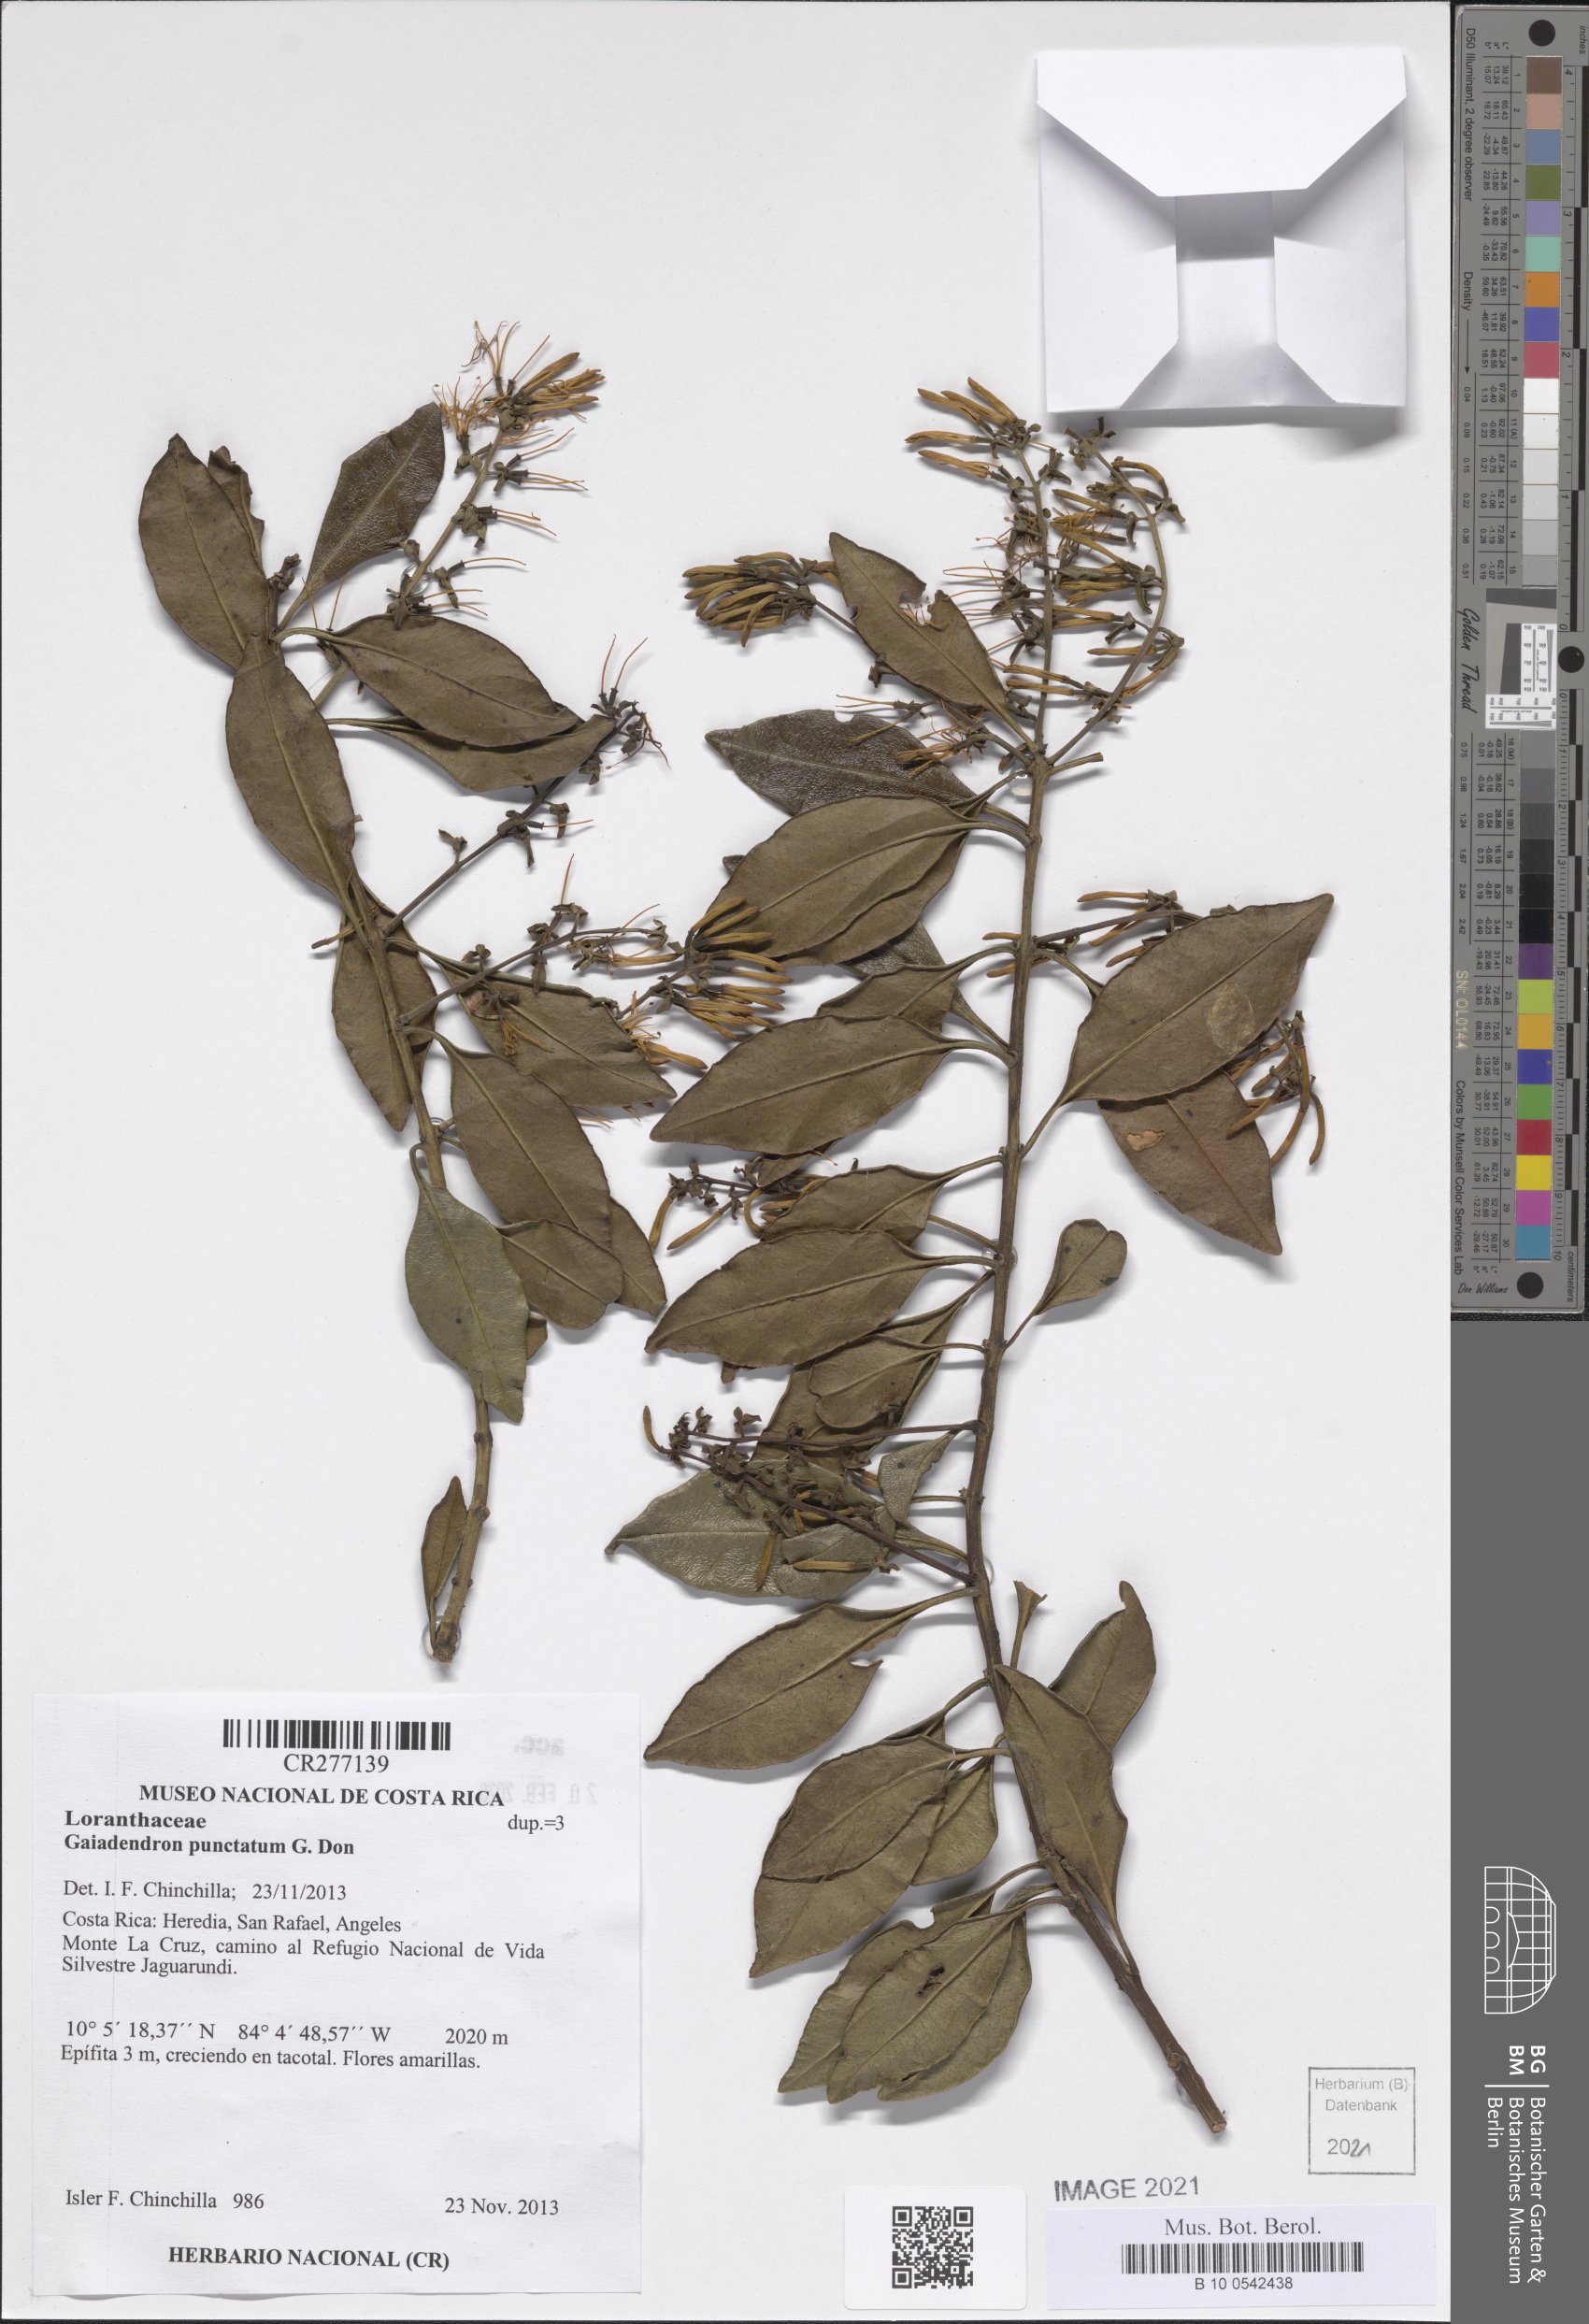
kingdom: Plantae
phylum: Tracheophyta
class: Magnoliopsida
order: Santalales
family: Loranthaceae
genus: Gaiadendron
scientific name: Gaiadendron punctatum
